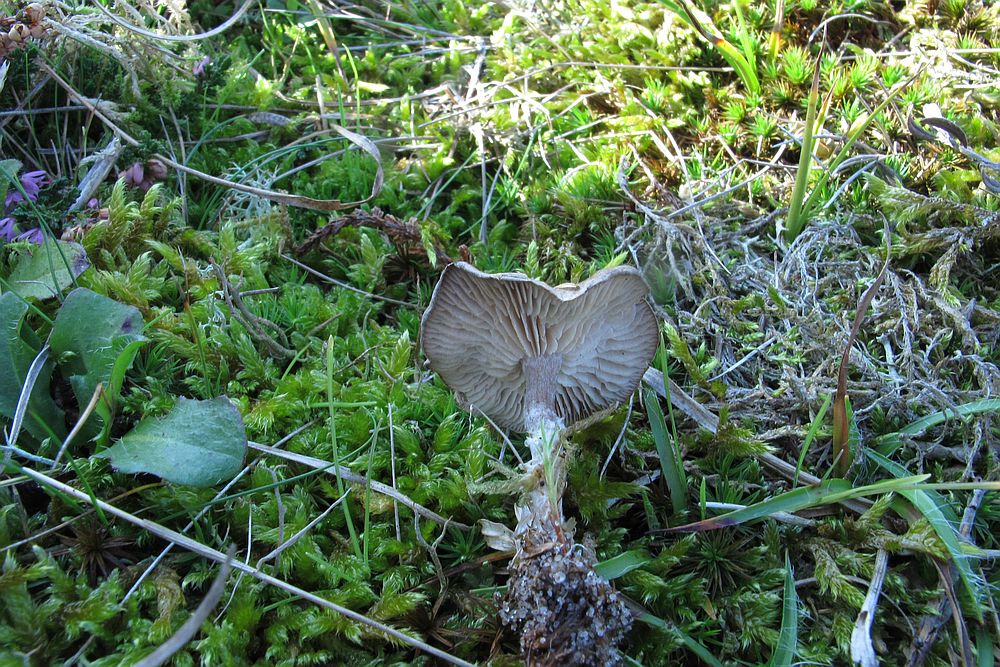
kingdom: Fungi
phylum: Basidiomycota
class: Agaricomycetes
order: Agaricales
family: Entolomataceae
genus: Clitopilus
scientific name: Clitopilus caelatus
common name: gråbrun troldhat
